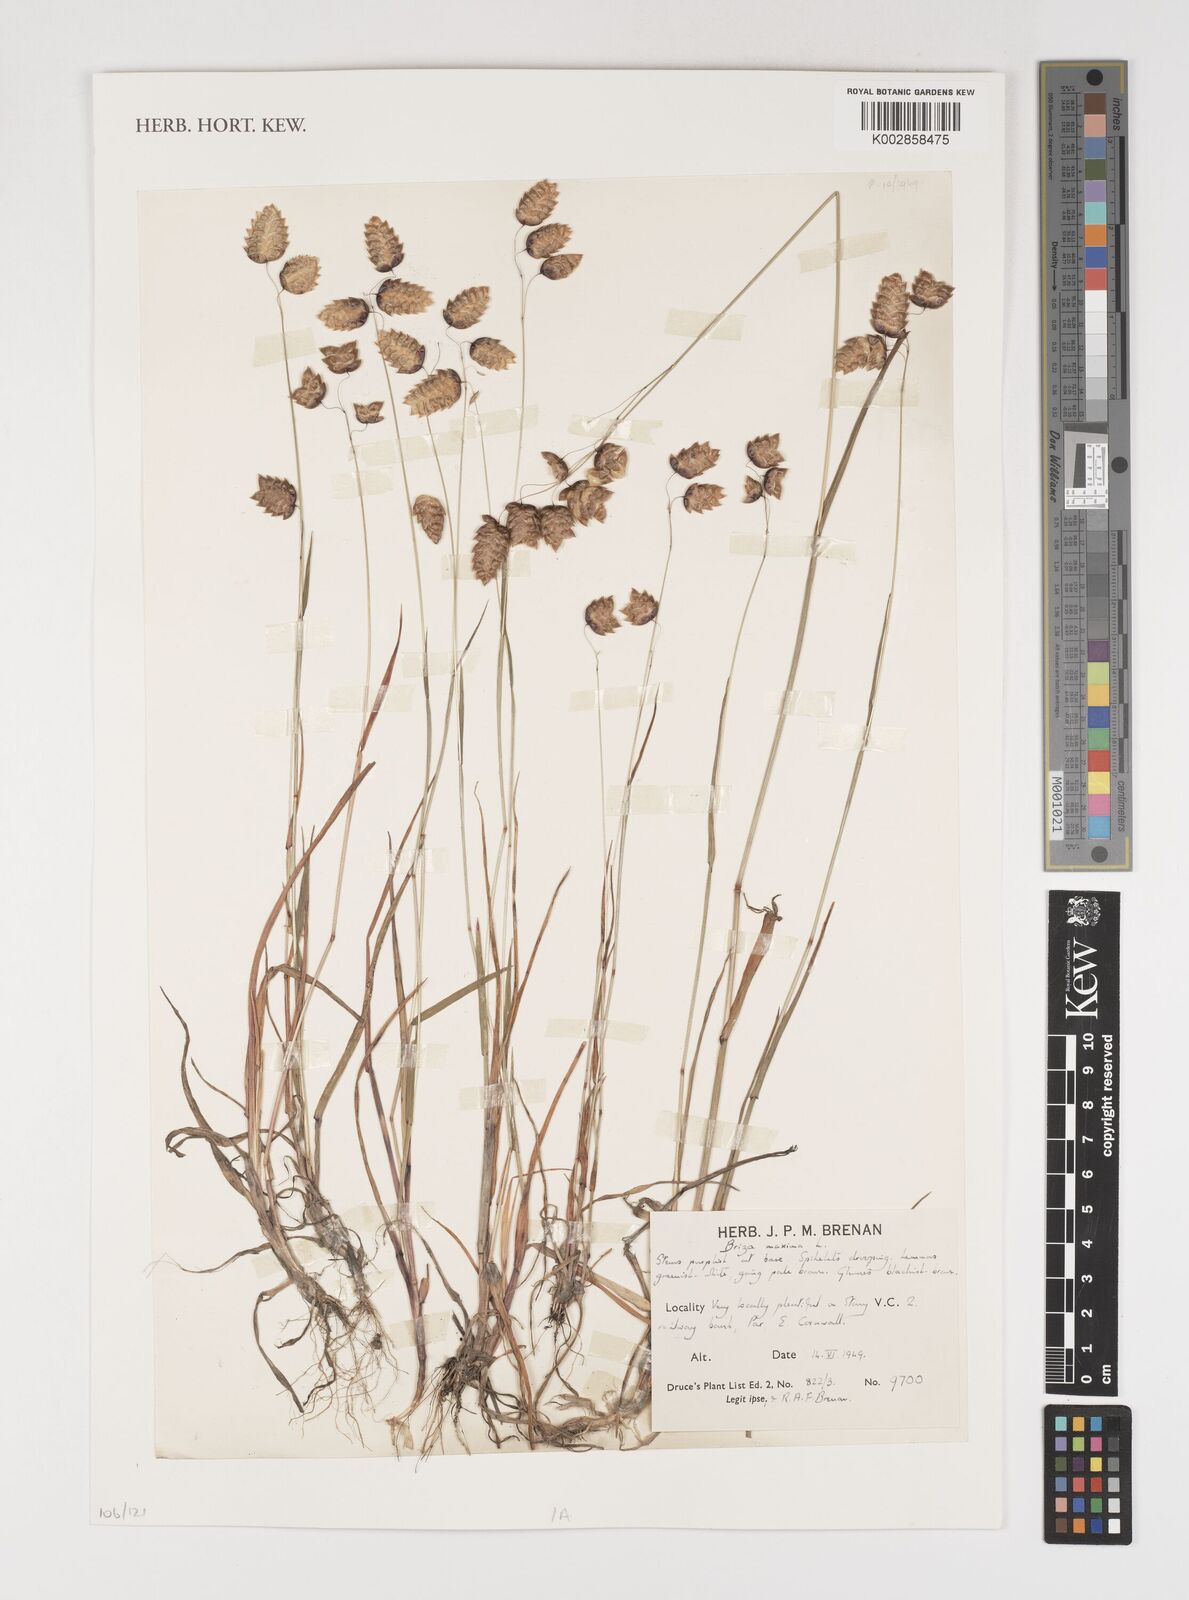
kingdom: Plantae
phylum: Tracheophyta
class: Liliopsida
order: Poales
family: Poaceae
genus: Briza
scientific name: Briza maxima
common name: Big quakinggrass
